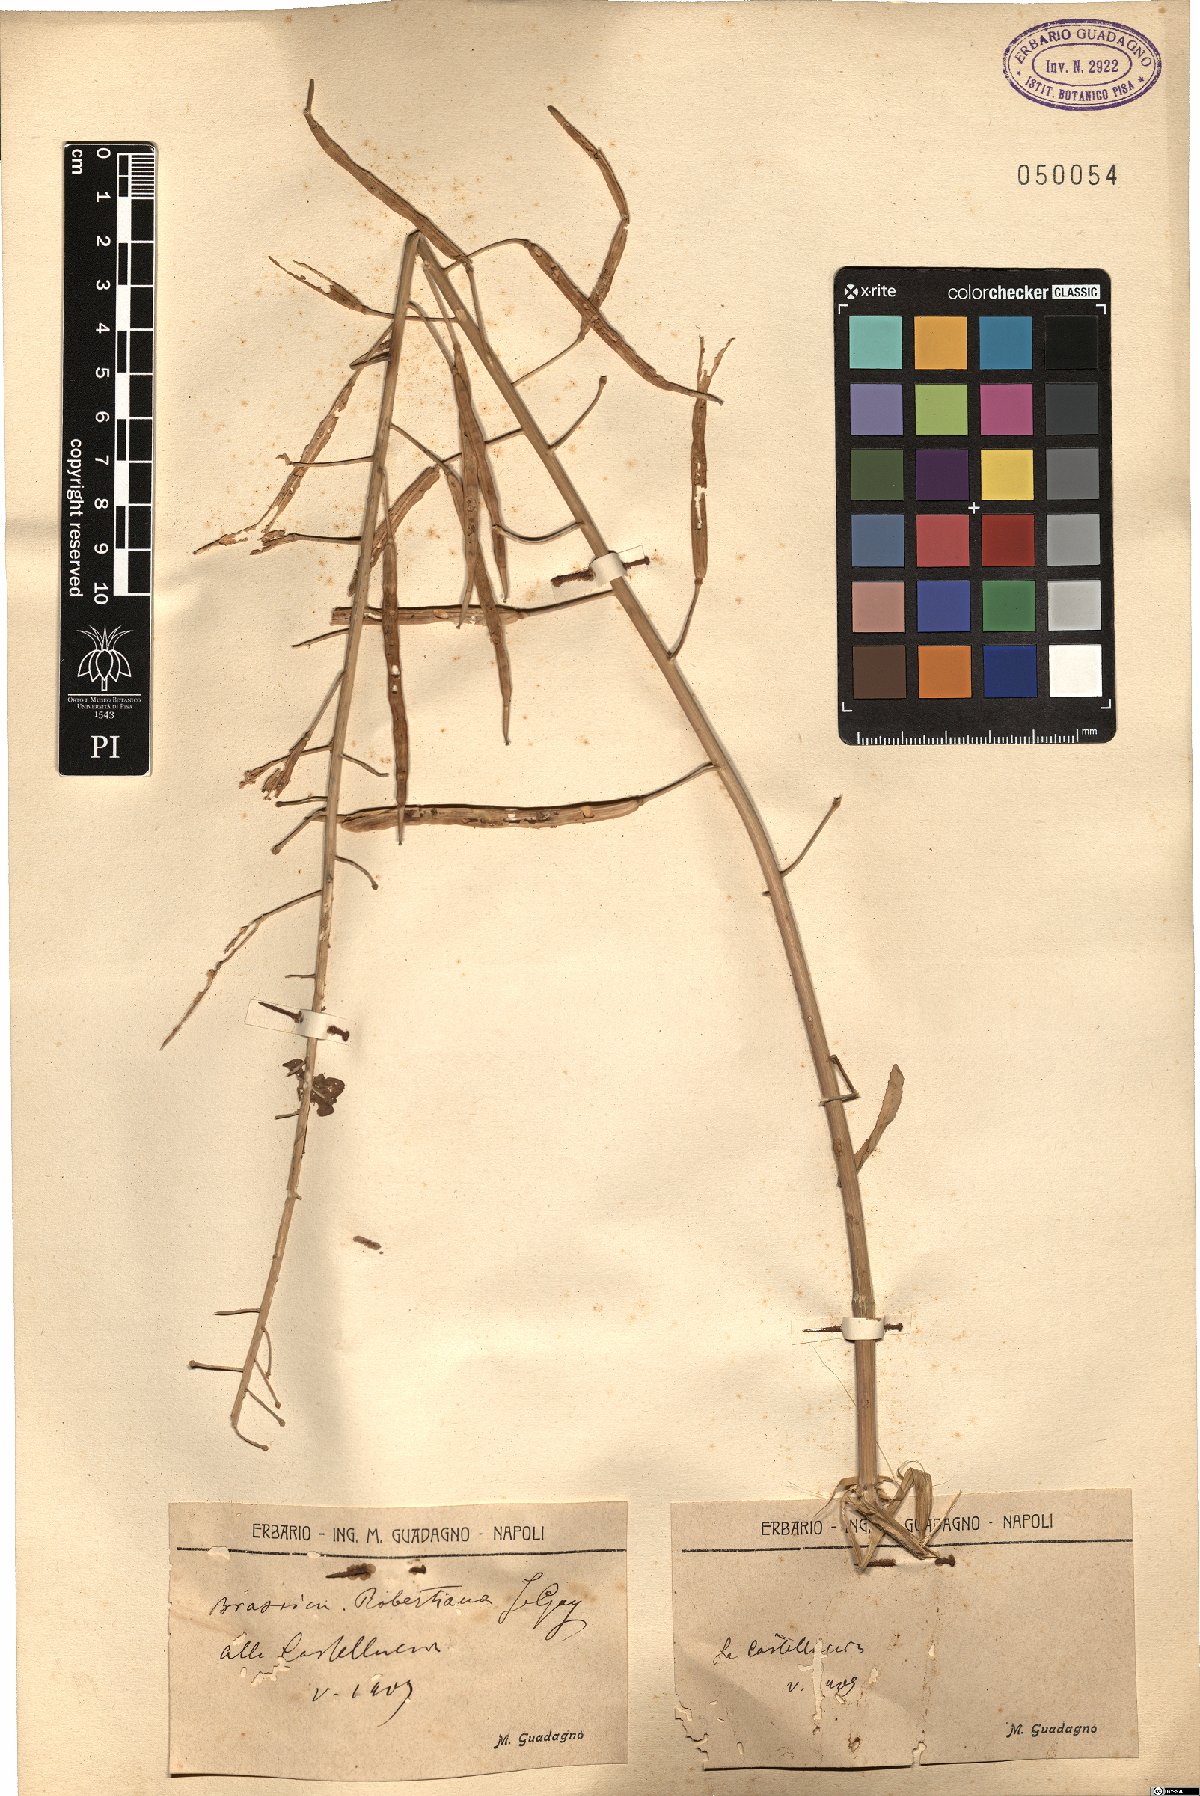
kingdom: Plantae
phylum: Tracheophyta
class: Magnoliopsida
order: Brassicales
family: Brassicaceae
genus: Brassica
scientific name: Brassica montana
